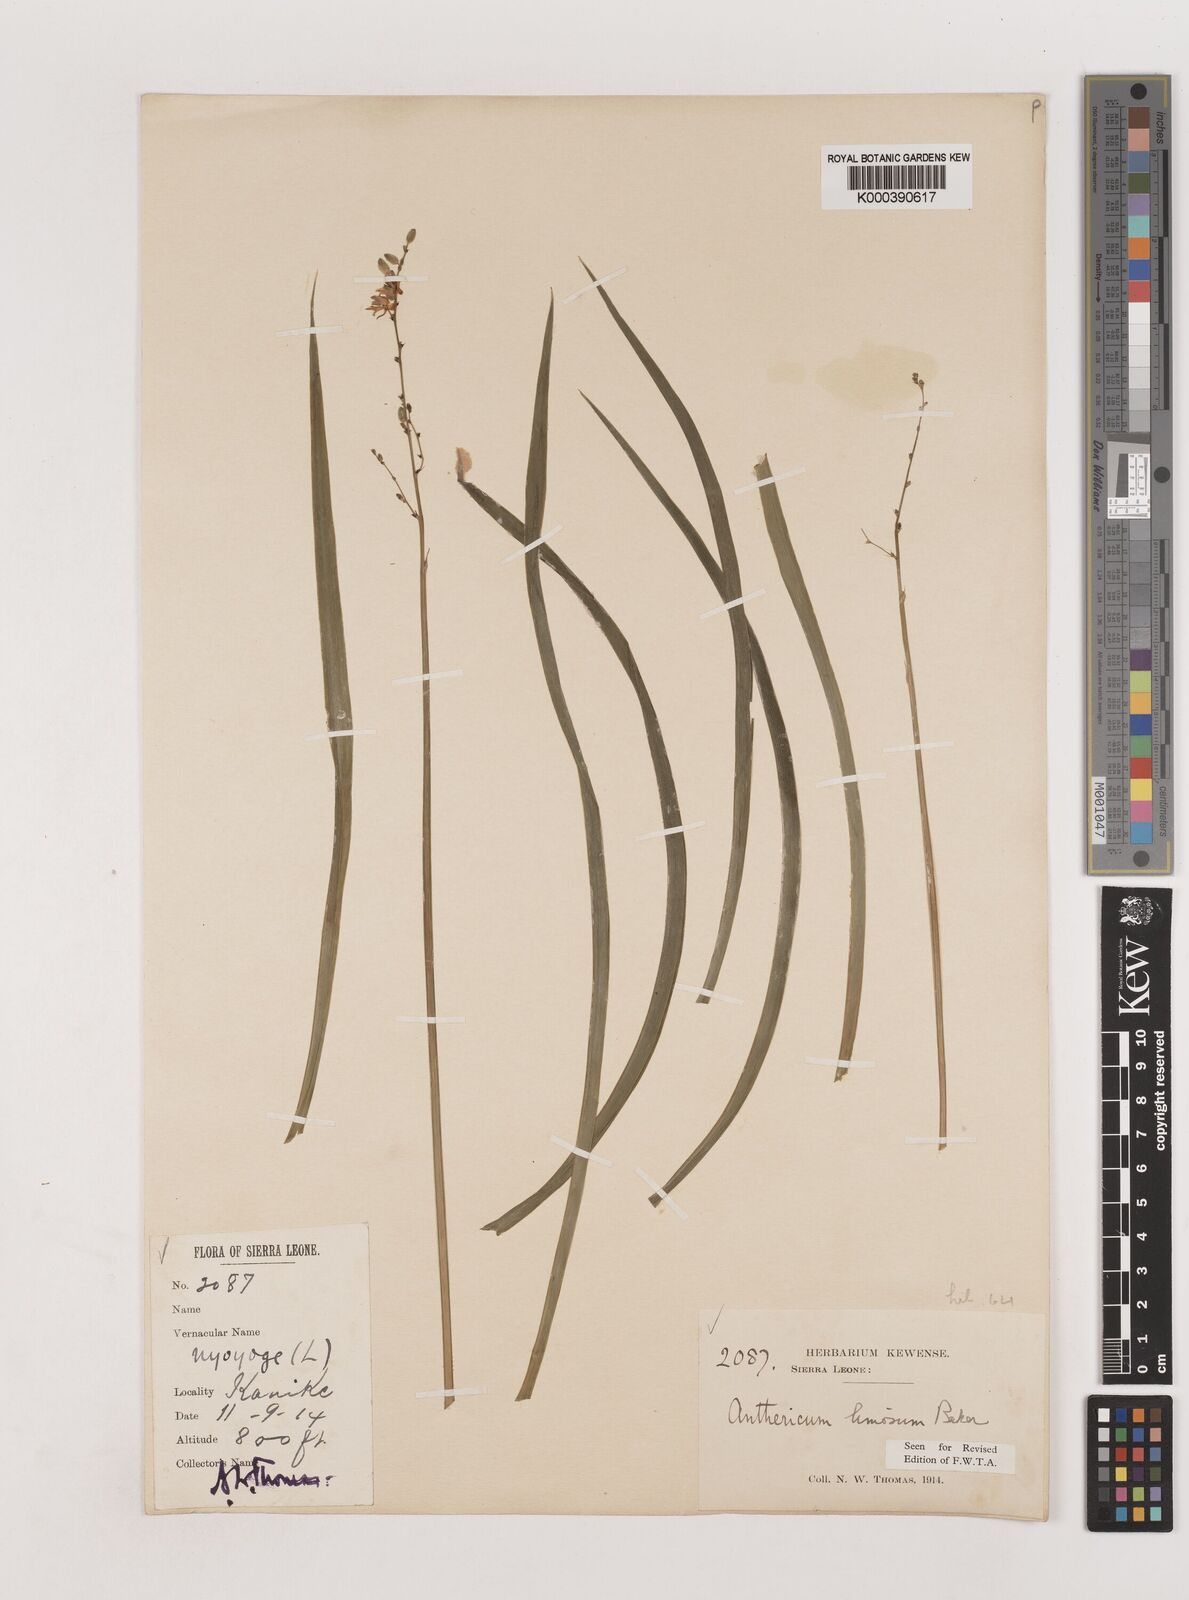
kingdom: Plantae
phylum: Tracheophyta
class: Liliopsida
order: Asparagales
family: Asparagaceae
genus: Chlorophytum
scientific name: Chlorophytum limosum
